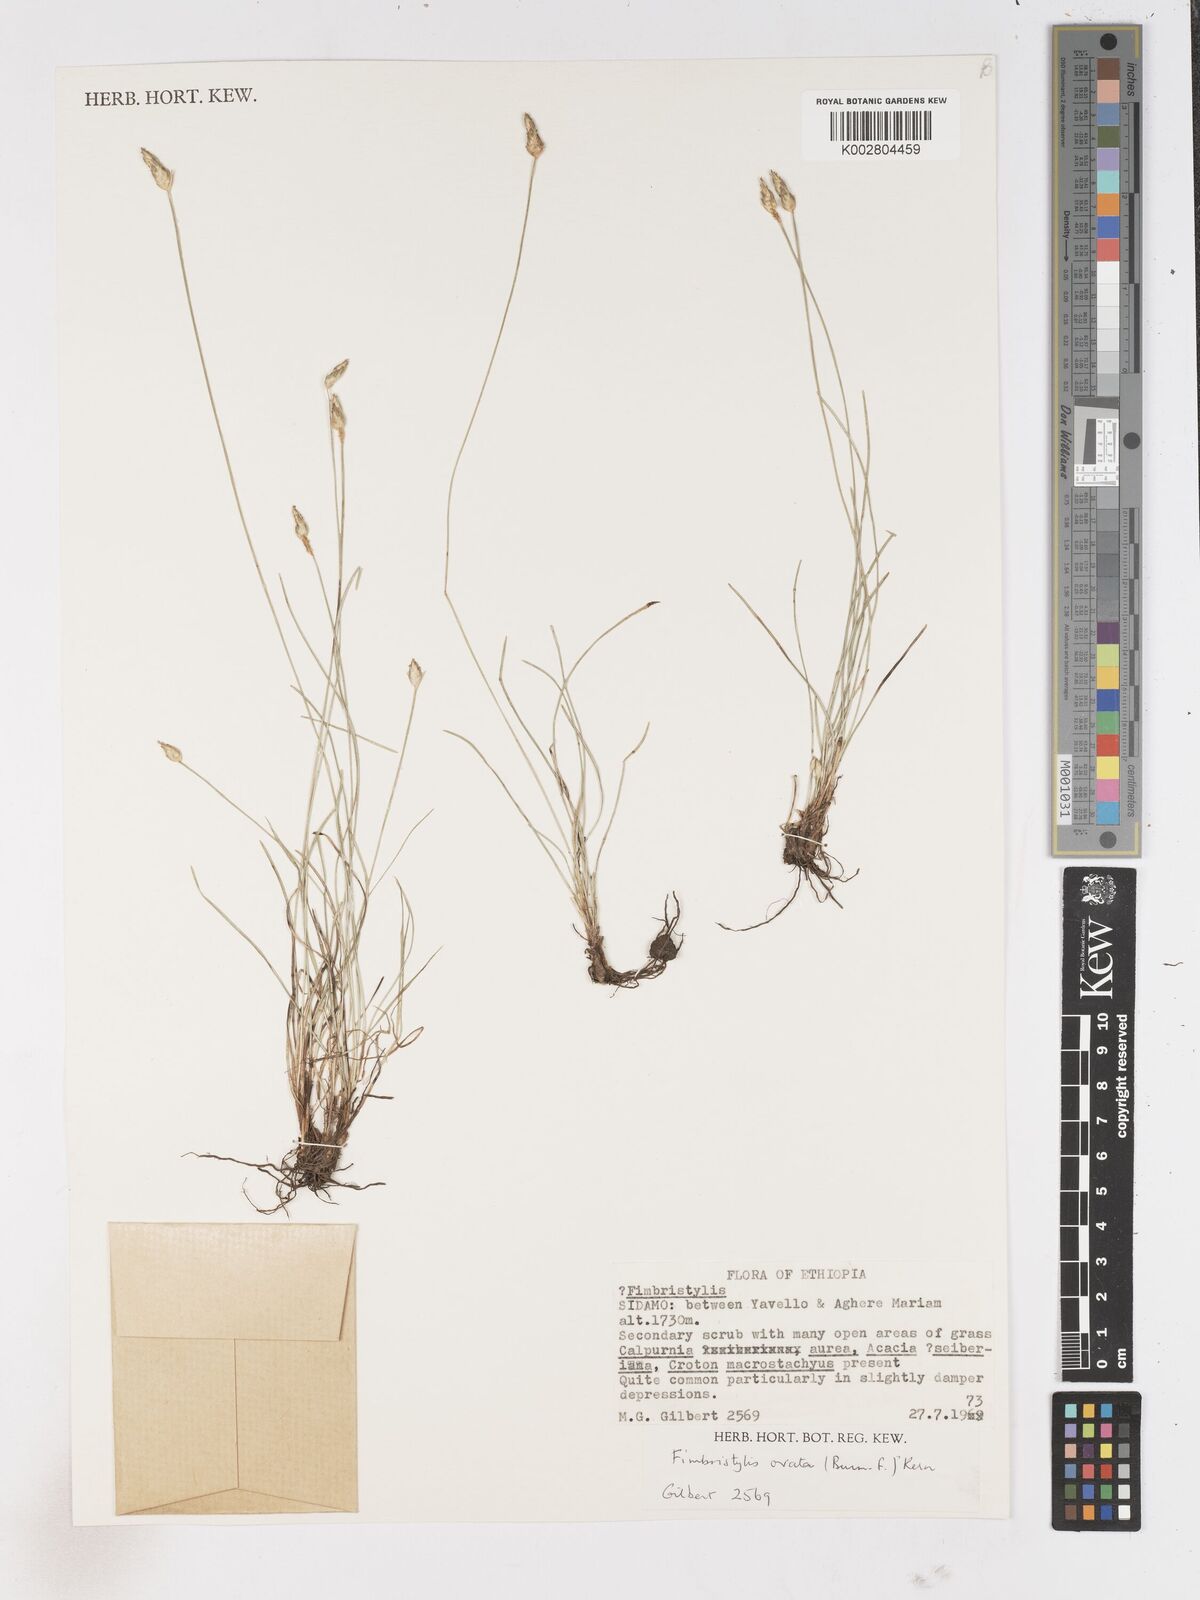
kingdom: Plantae
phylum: Tracheophyta
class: Liliopsida
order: Poales
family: Cyperaceae
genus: Abildgaardia
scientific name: Abildgaardia ovata
